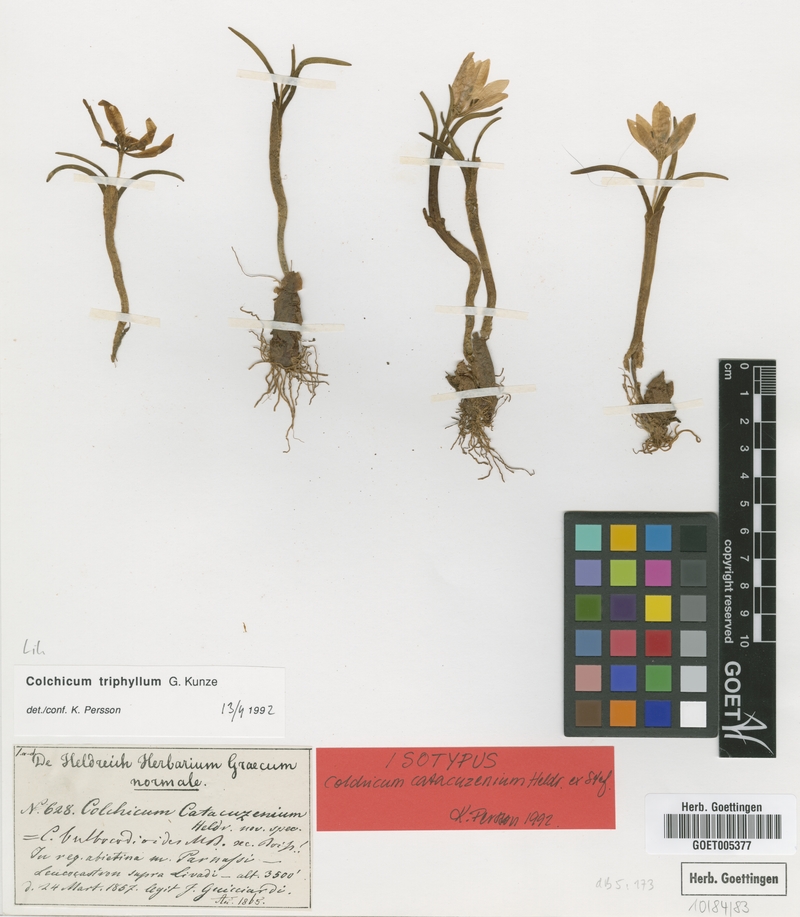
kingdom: Plantae
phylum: Tracheophyta
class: Liliopsida
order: Liliales
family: Colchicaceae
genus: Colchicum
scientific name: Colchicum triphyllum
